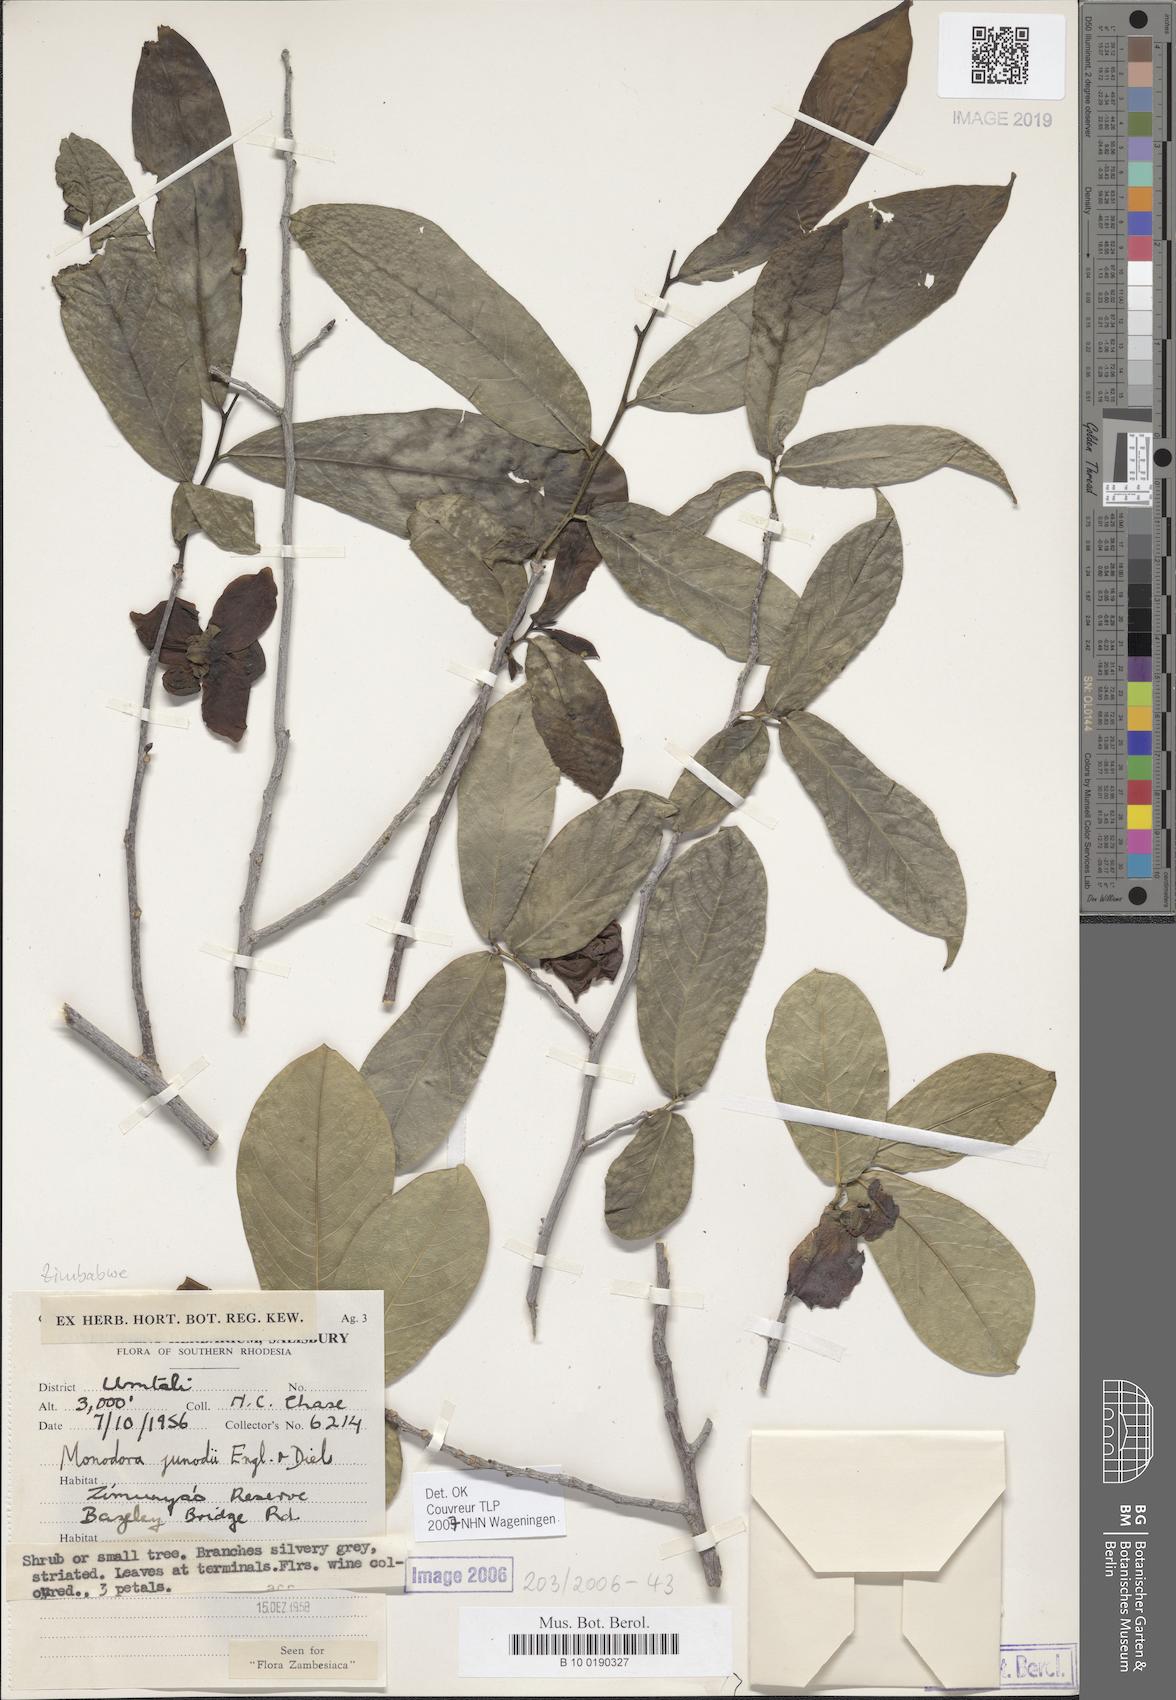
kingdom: Plantae
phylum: Tracheophyta
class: Magnoliopsida
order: Magnoliales
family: Annonaceae
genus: Monodora
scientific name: Monodora junodii
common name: Green-apple
